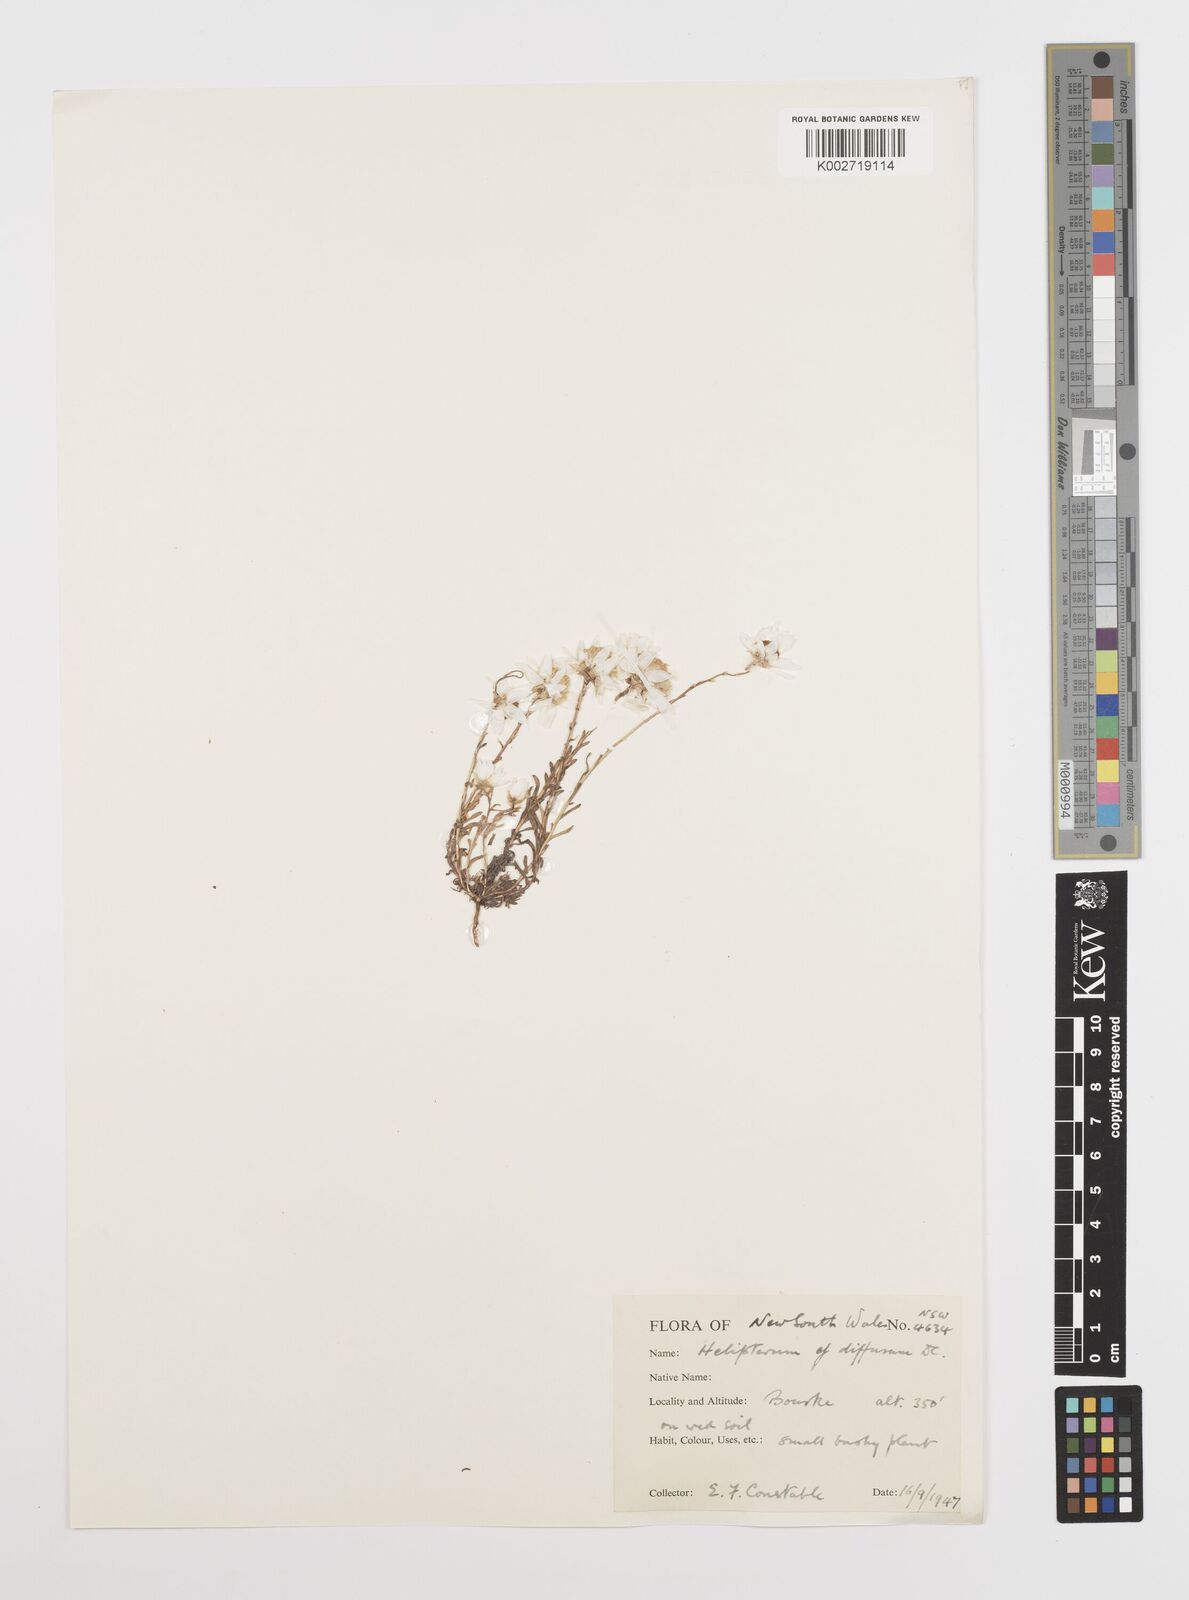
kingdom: Plantae
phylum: Tracheophyta
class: Magnoliopsida
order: Asterales
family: Asteraceae
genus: Rhodanthe
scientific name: Rhodanthe diffusa
